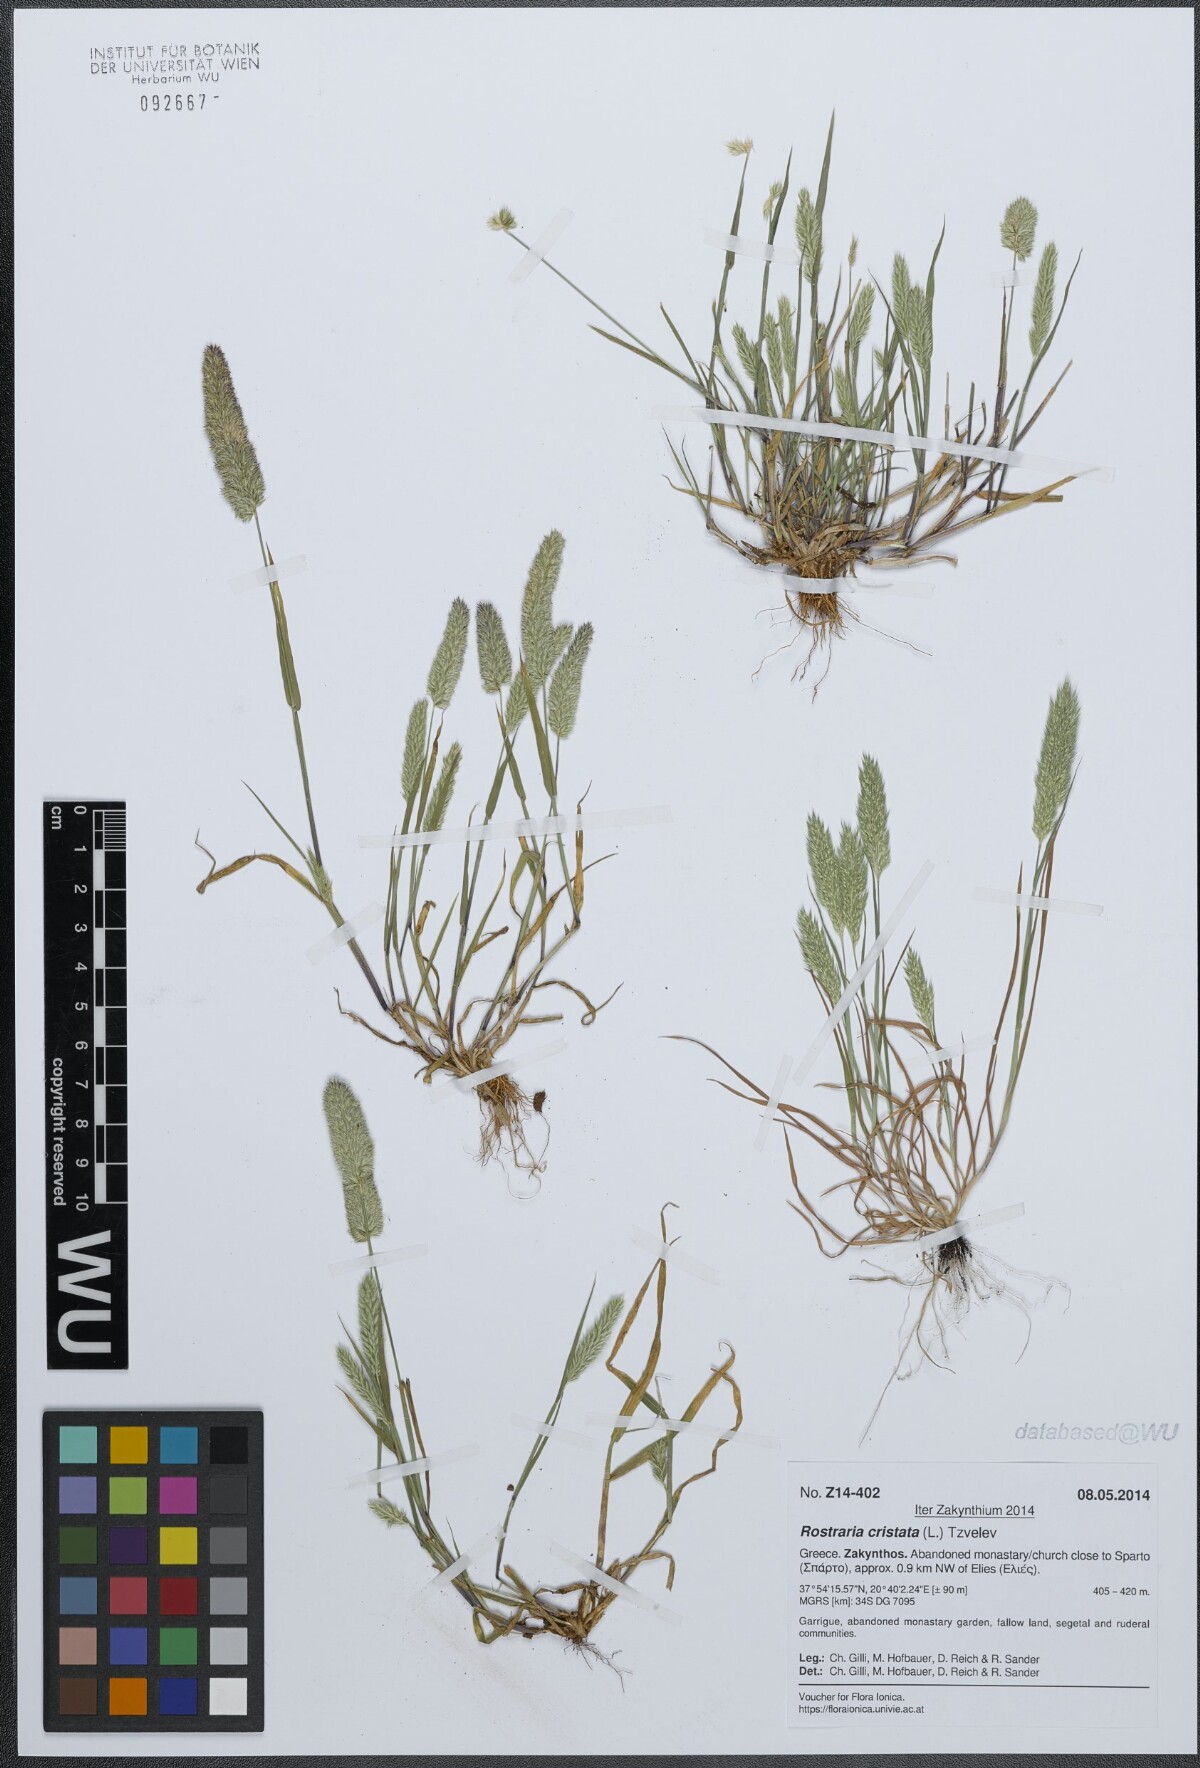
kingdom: Plantae
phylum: Tracheophyta
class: Liliopsida
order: Poales
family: Poaceae
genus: Rostraria
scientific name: Rostraria cristata
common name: Mediterranean hair-grass
